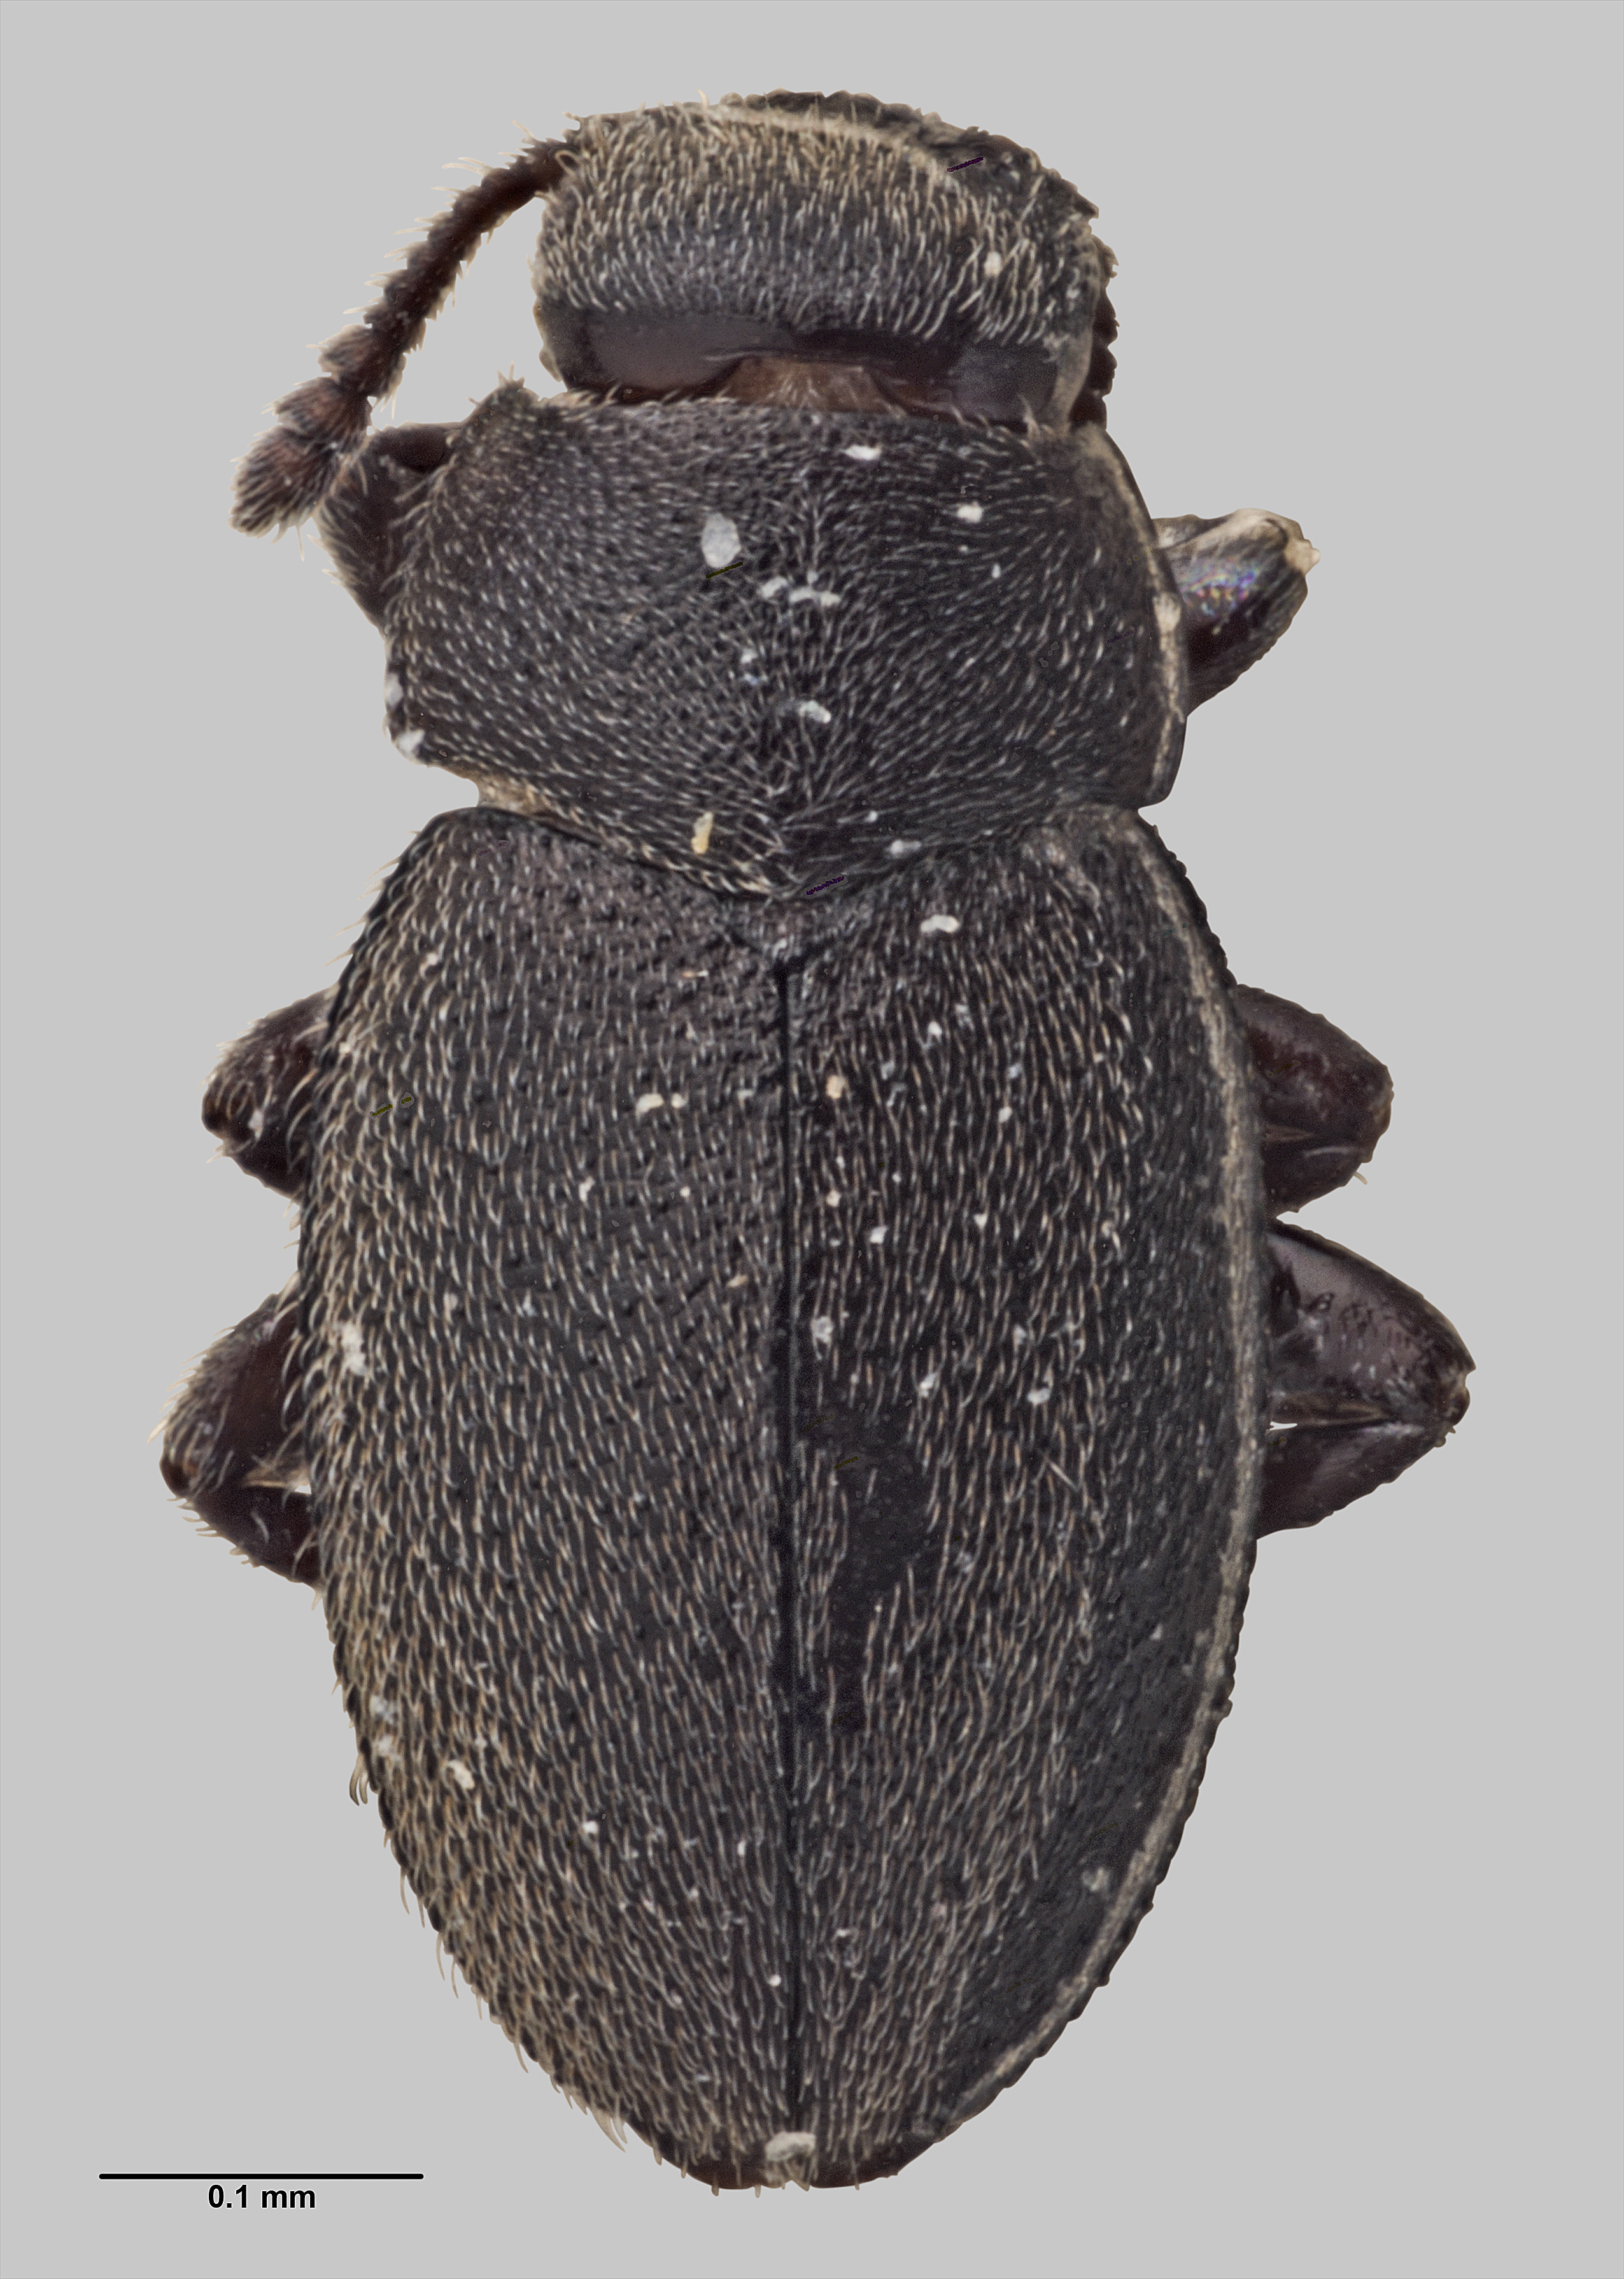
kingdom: Animalia
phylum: Arthropoda
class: Insecta
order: Coleoptera
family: Limnichidae
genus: Hyphalus
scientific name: Hyphalus wisei
